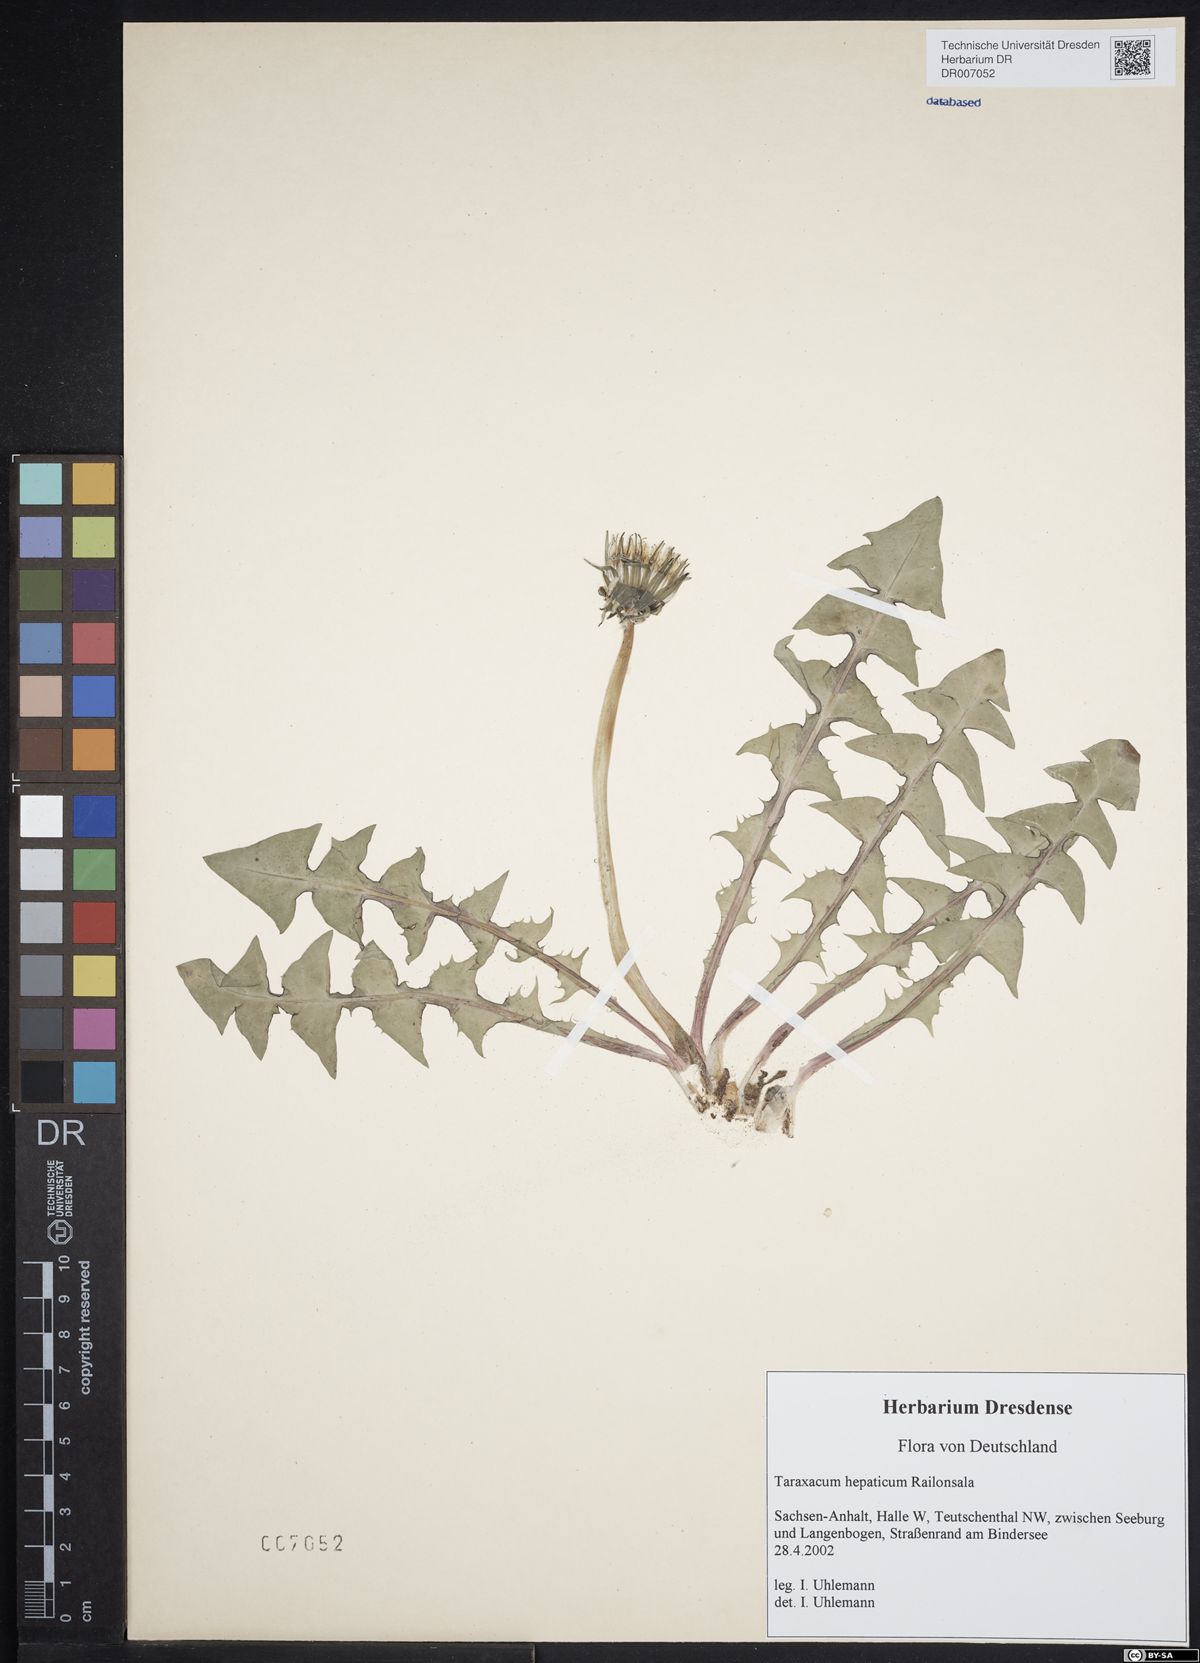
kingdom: Plantae
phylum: Tracheophyta
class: Magnoliopsida
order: Asterales
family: Asteraceae
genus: Taraxacum
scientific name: Taraxacum hepaticum
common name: Regular-lobed dandelion
